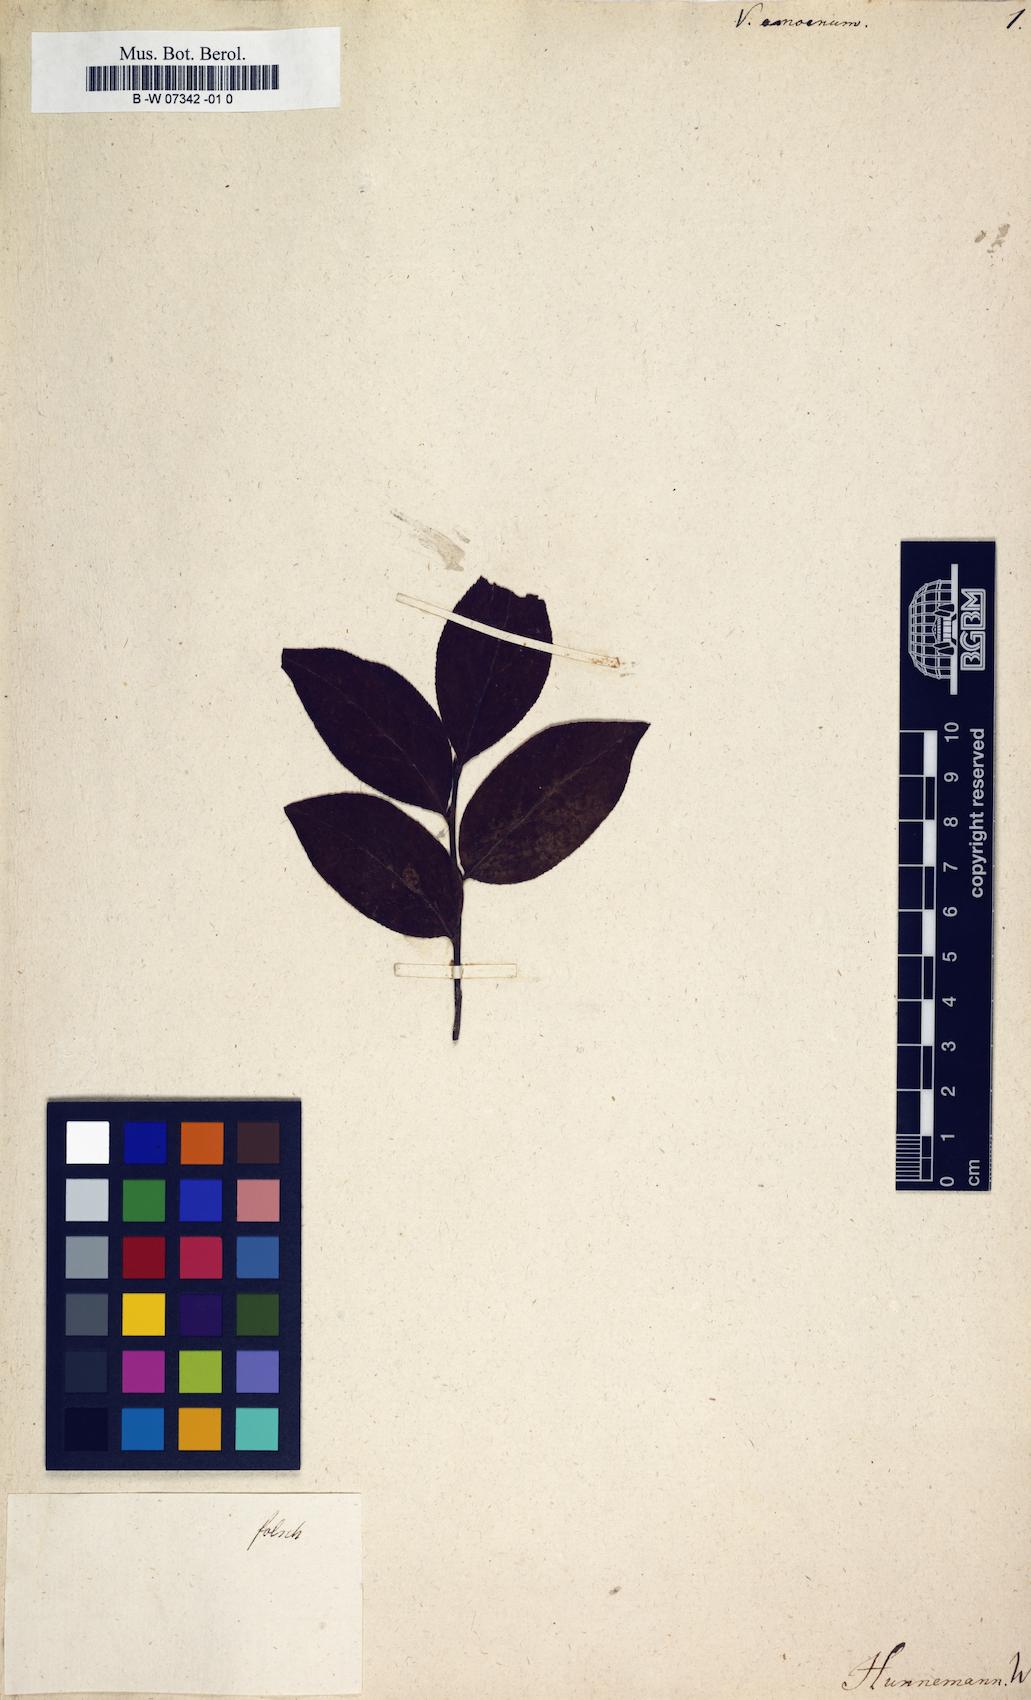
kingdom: Plantae
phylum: Tracheophyta
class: Magnoliopsida
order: Ericales
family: Ericaceae
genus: Vaccinium
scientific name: Vaccinium corymbosum
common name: Blueberry
